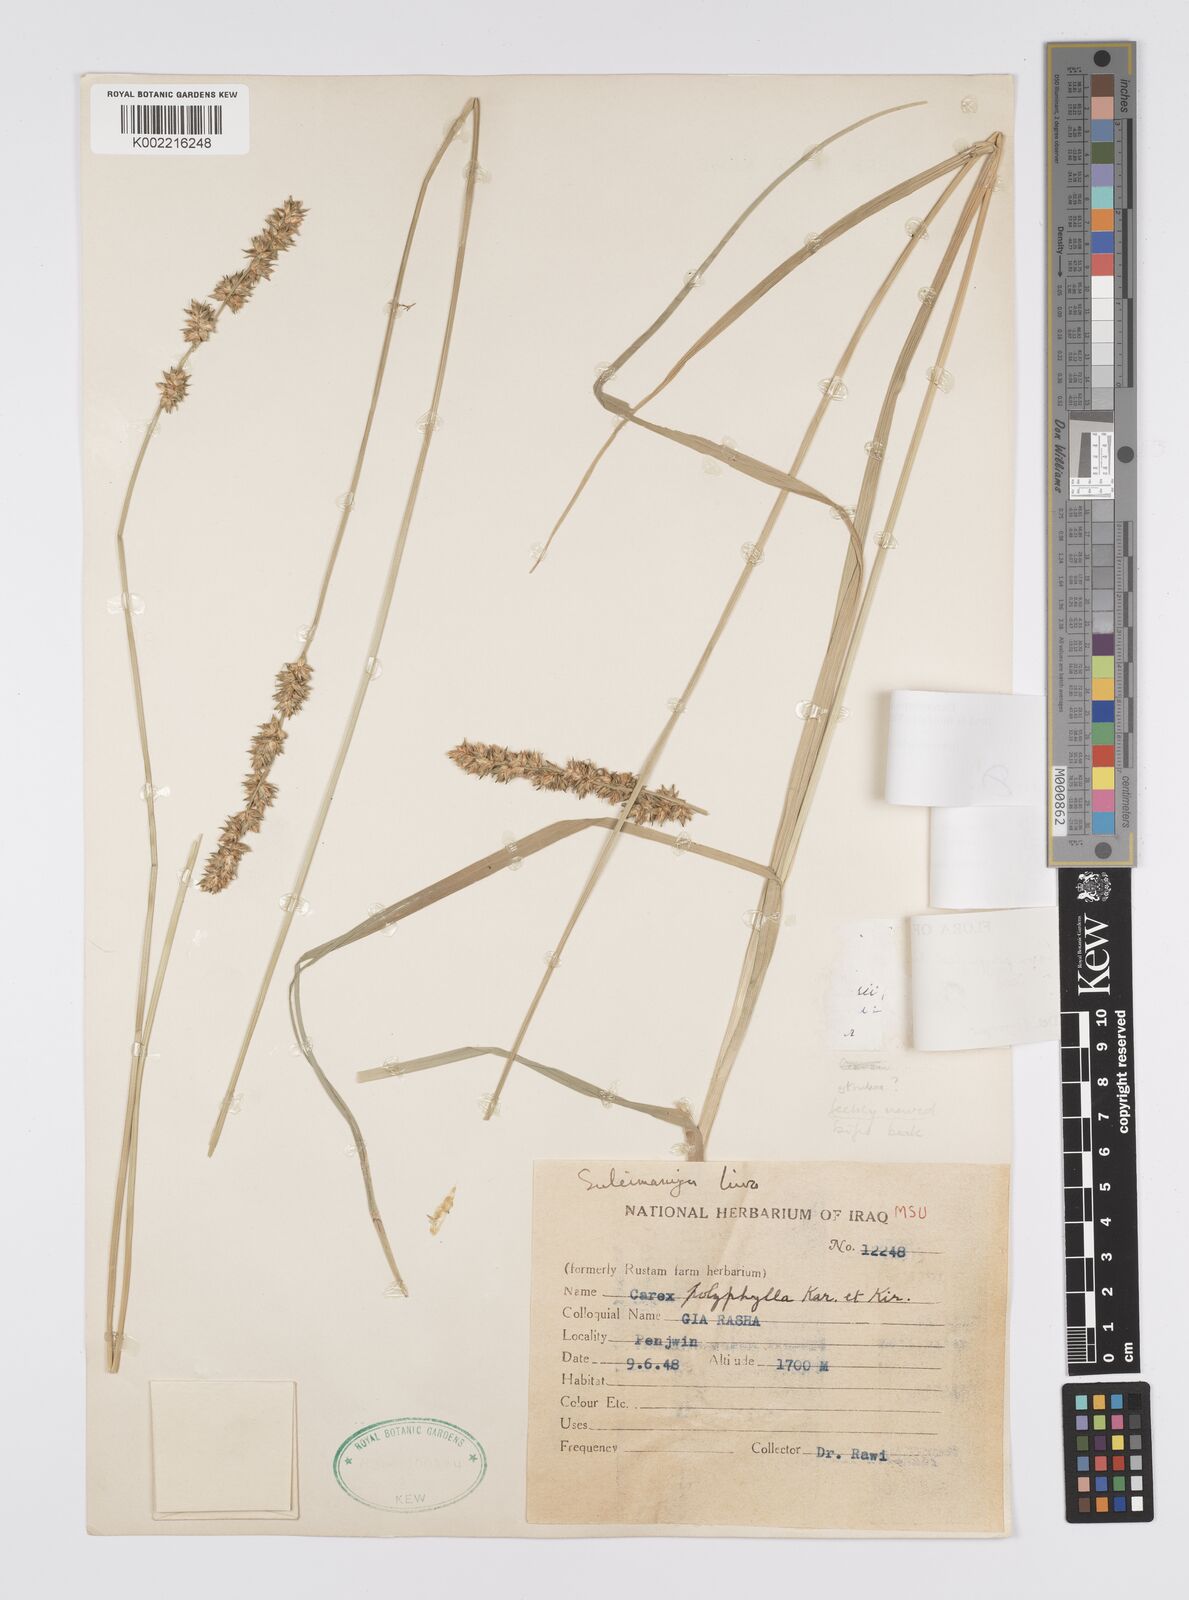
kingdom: Plantae
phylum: Tracheophyta
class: Liliopsida
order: Poales
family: Cyperaceae
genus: Carex
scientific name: Carex polyphylla
